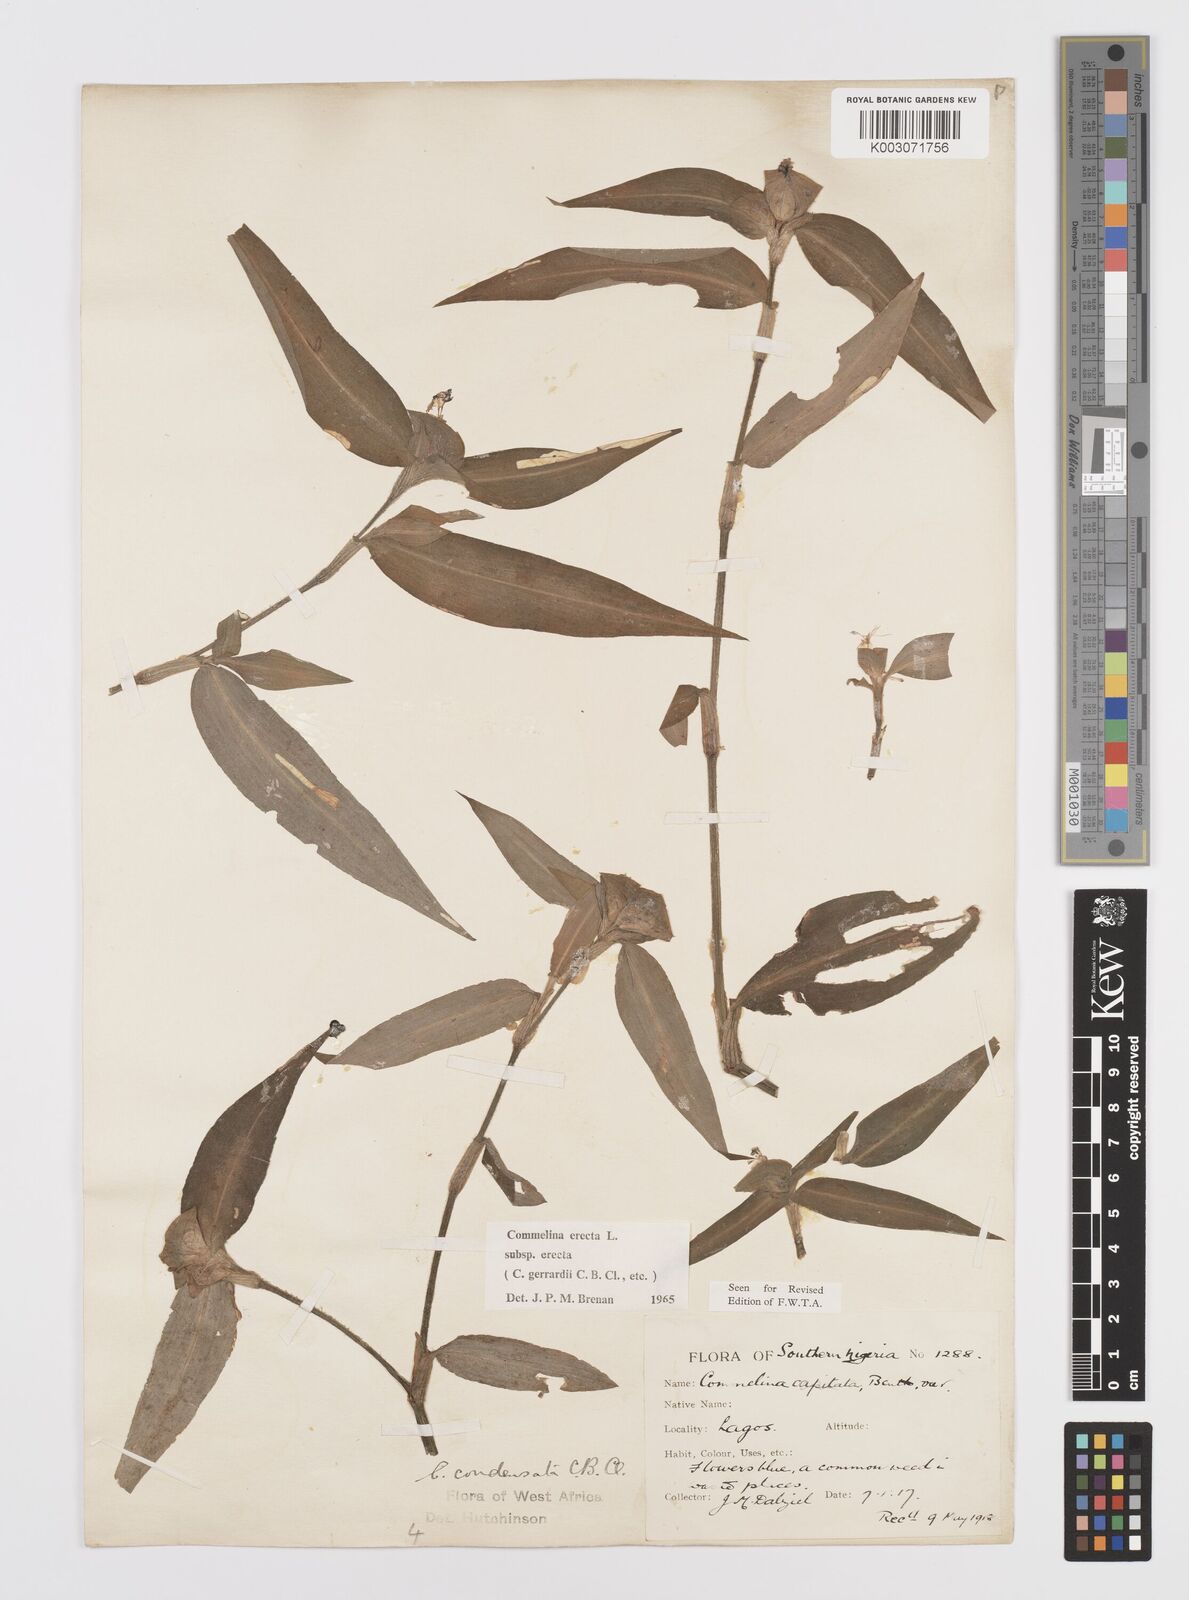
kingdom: Plantae
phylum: Tracheophyta
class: Liliopsida
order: Commelinales
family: Commelinaceae
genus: Commelina
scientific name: Commelina erecta
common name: Blousel blommetjie
